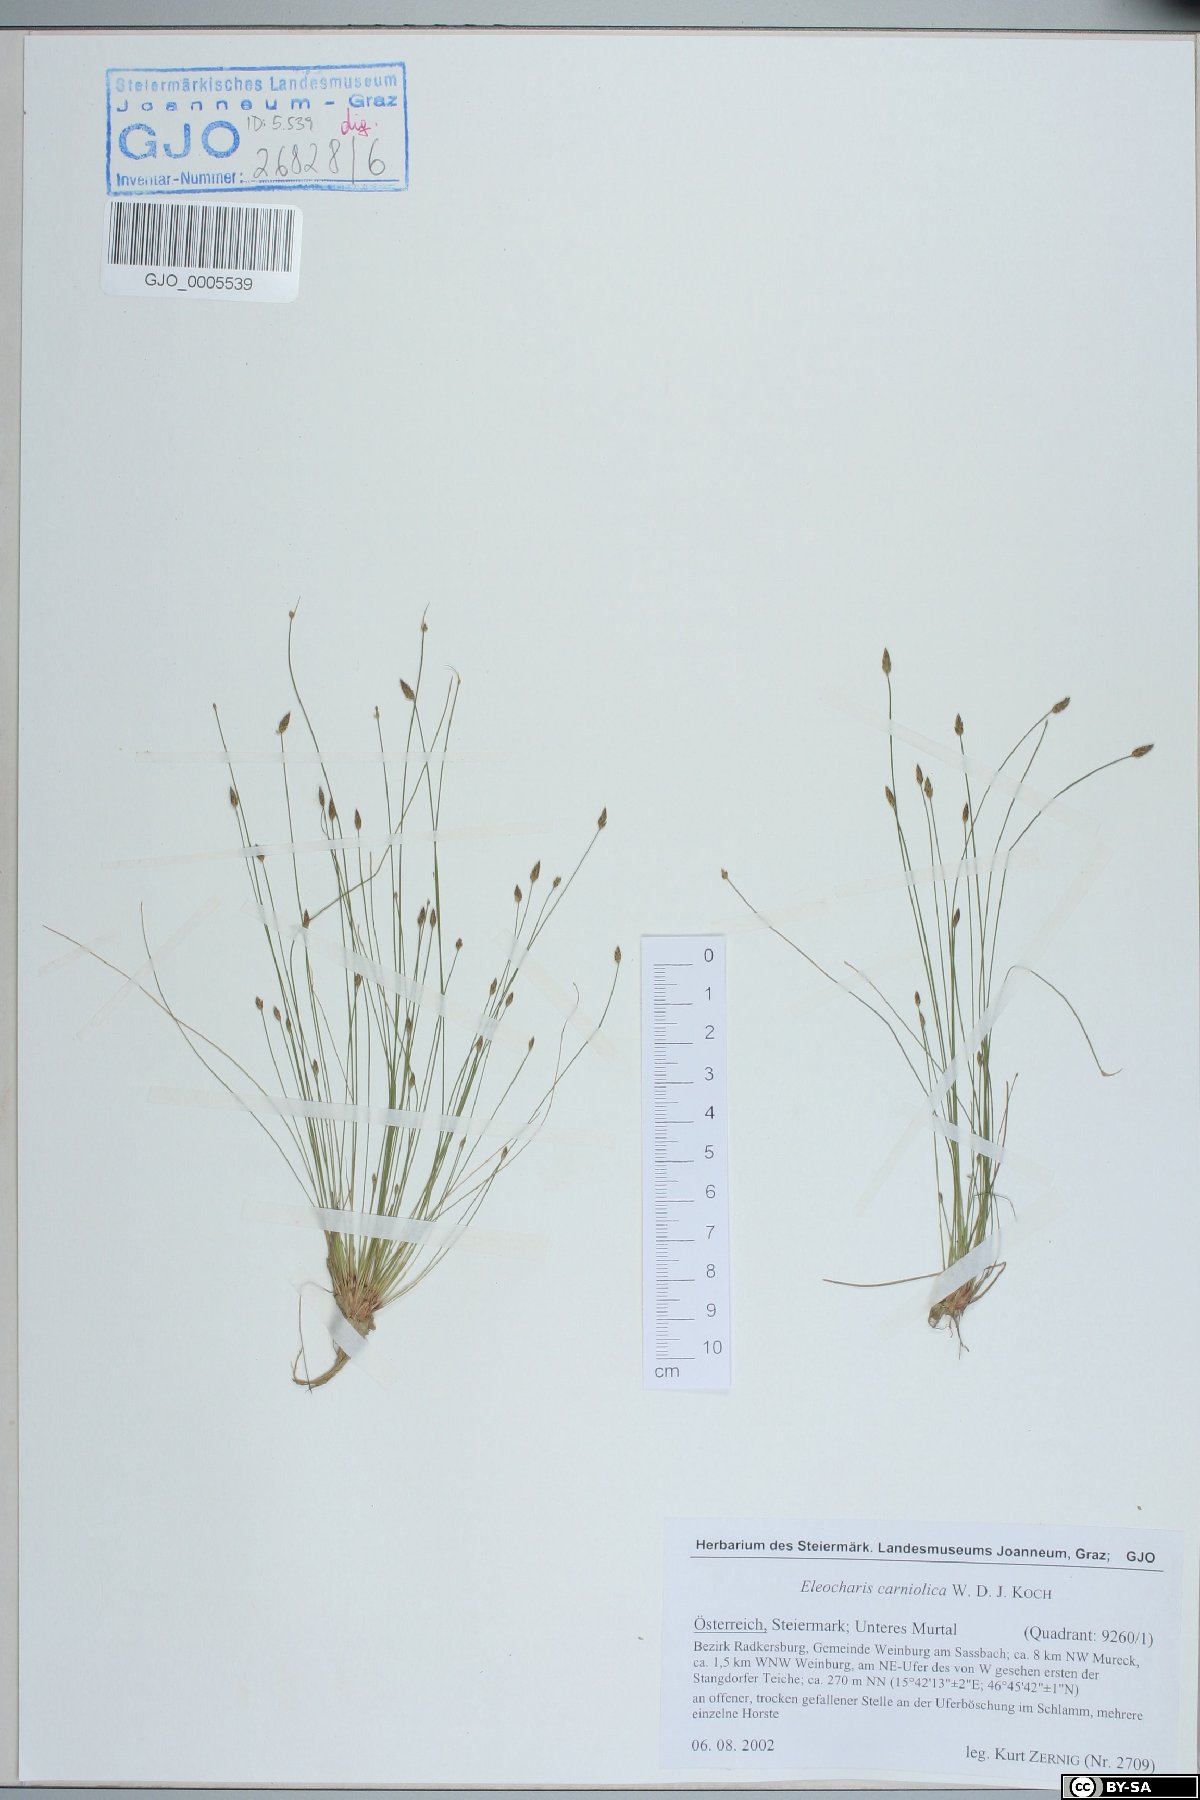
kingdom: Plantae
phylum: Tracheophyta
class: Liliopsida
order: Poales
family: Cyperaceae
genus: Eleocharis
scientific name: Eleocharis carniolica
